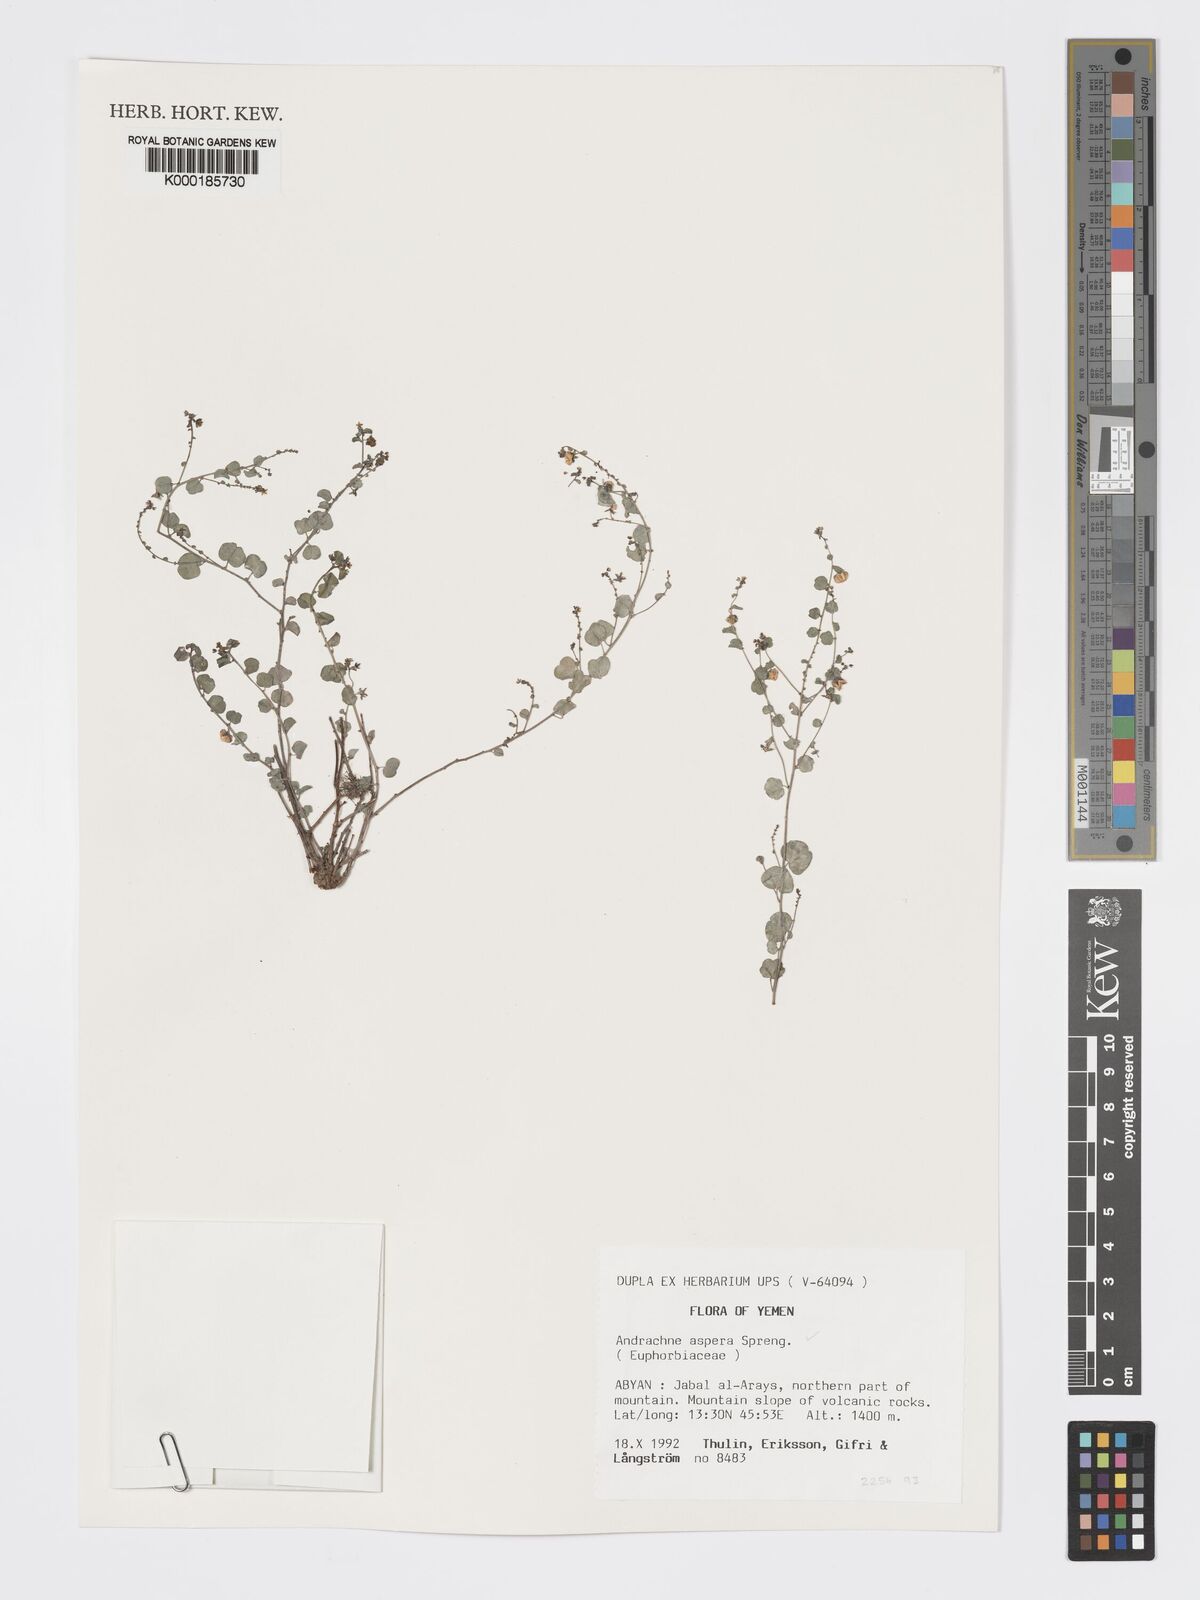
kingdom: Plantae
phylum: Tracheophyta
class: Magnoliopsida
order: Malpighiales
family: Phyllanthaceae
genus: Andrachne
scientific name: Andrachne aspera
